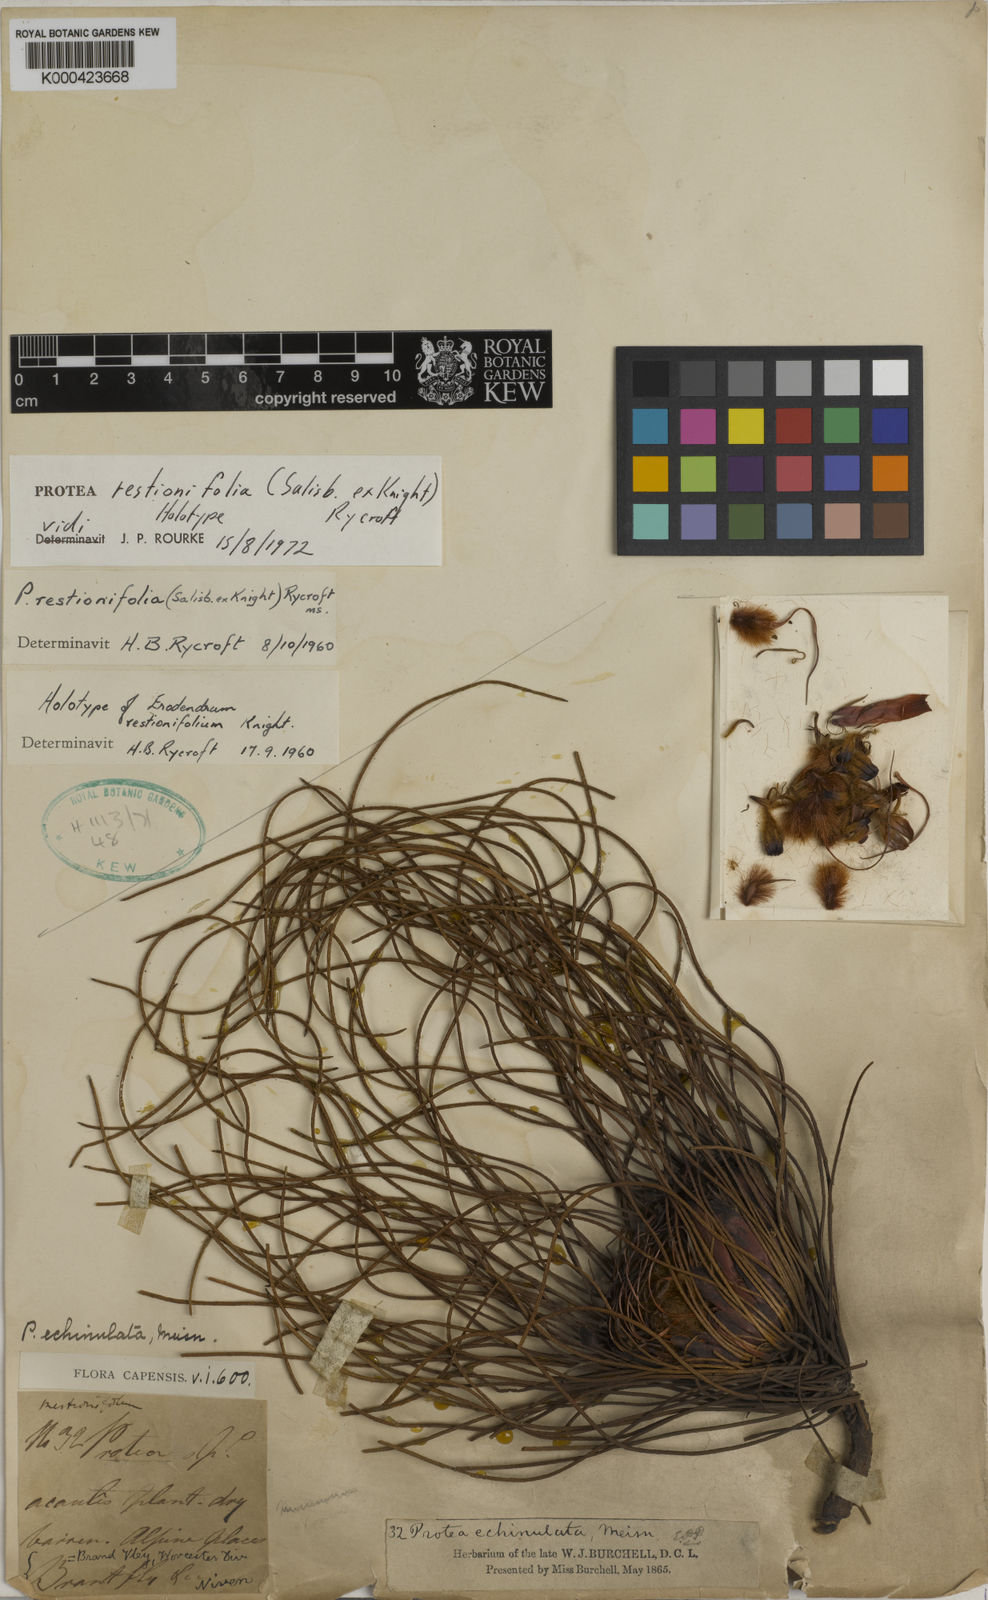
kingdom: Plantae
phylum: Tracheophyta
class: Magnoliopsida
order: Proteales
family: Proteaceae
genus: Protea
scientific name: Protea restionifolia
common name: Reed-leaf sugarbush
